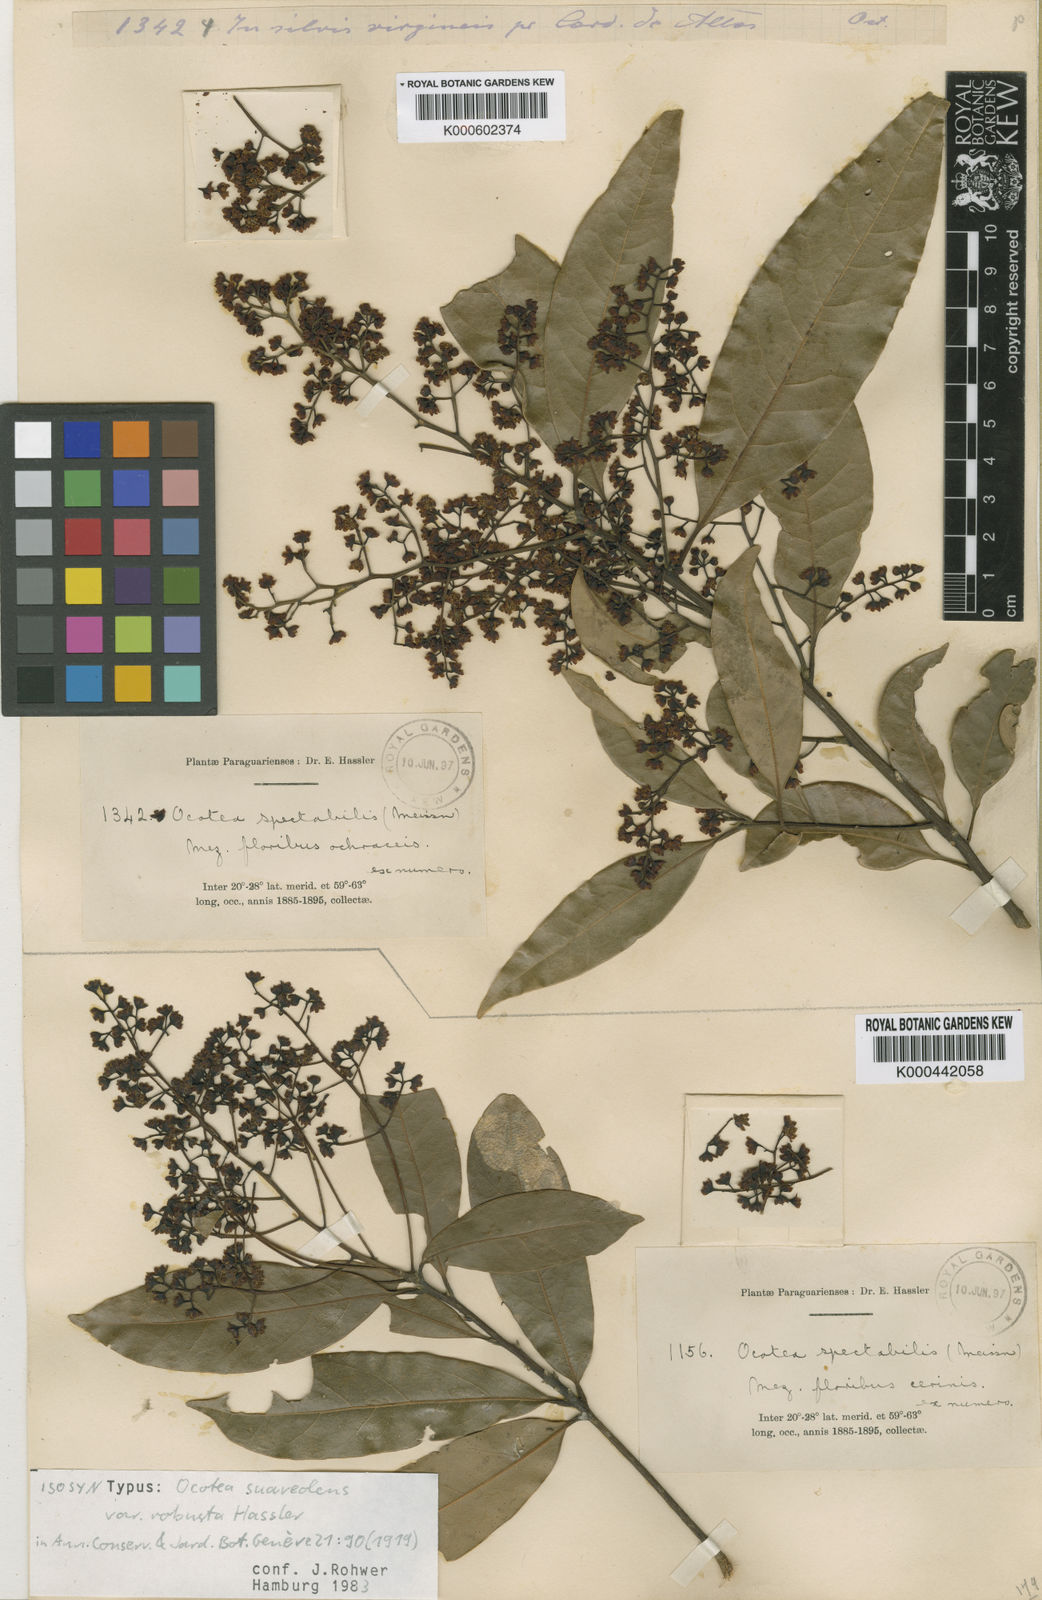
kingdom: Plantae
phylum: Tracheophyta
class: Magnoliopsida
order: Laurales
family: Lauraceae
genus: Ocotea
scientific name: Ocotea diospyrifolia
